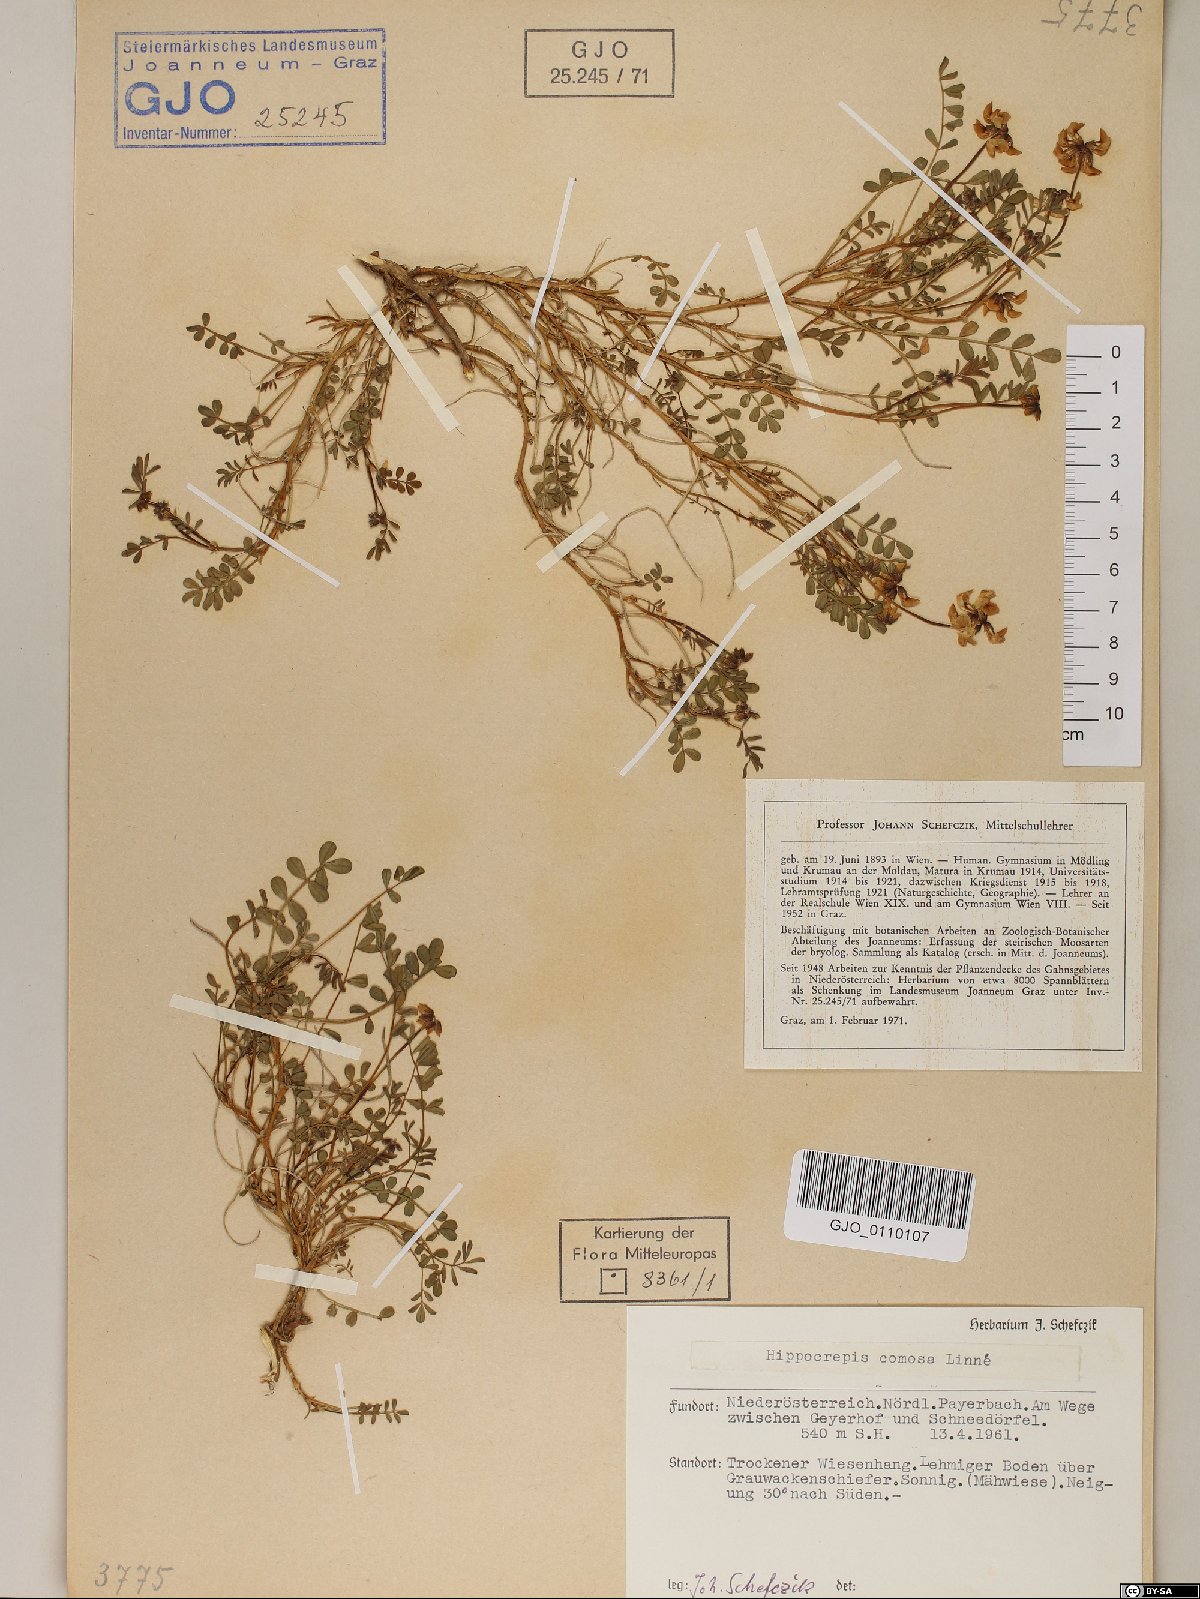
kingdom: Plantae
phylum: Tracheophyta
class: Magnoliopsida
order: Fabales
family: Fabaceae
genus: Hippocrepis
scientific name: Hippocrepis comosa
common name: Horseshoe vetch
